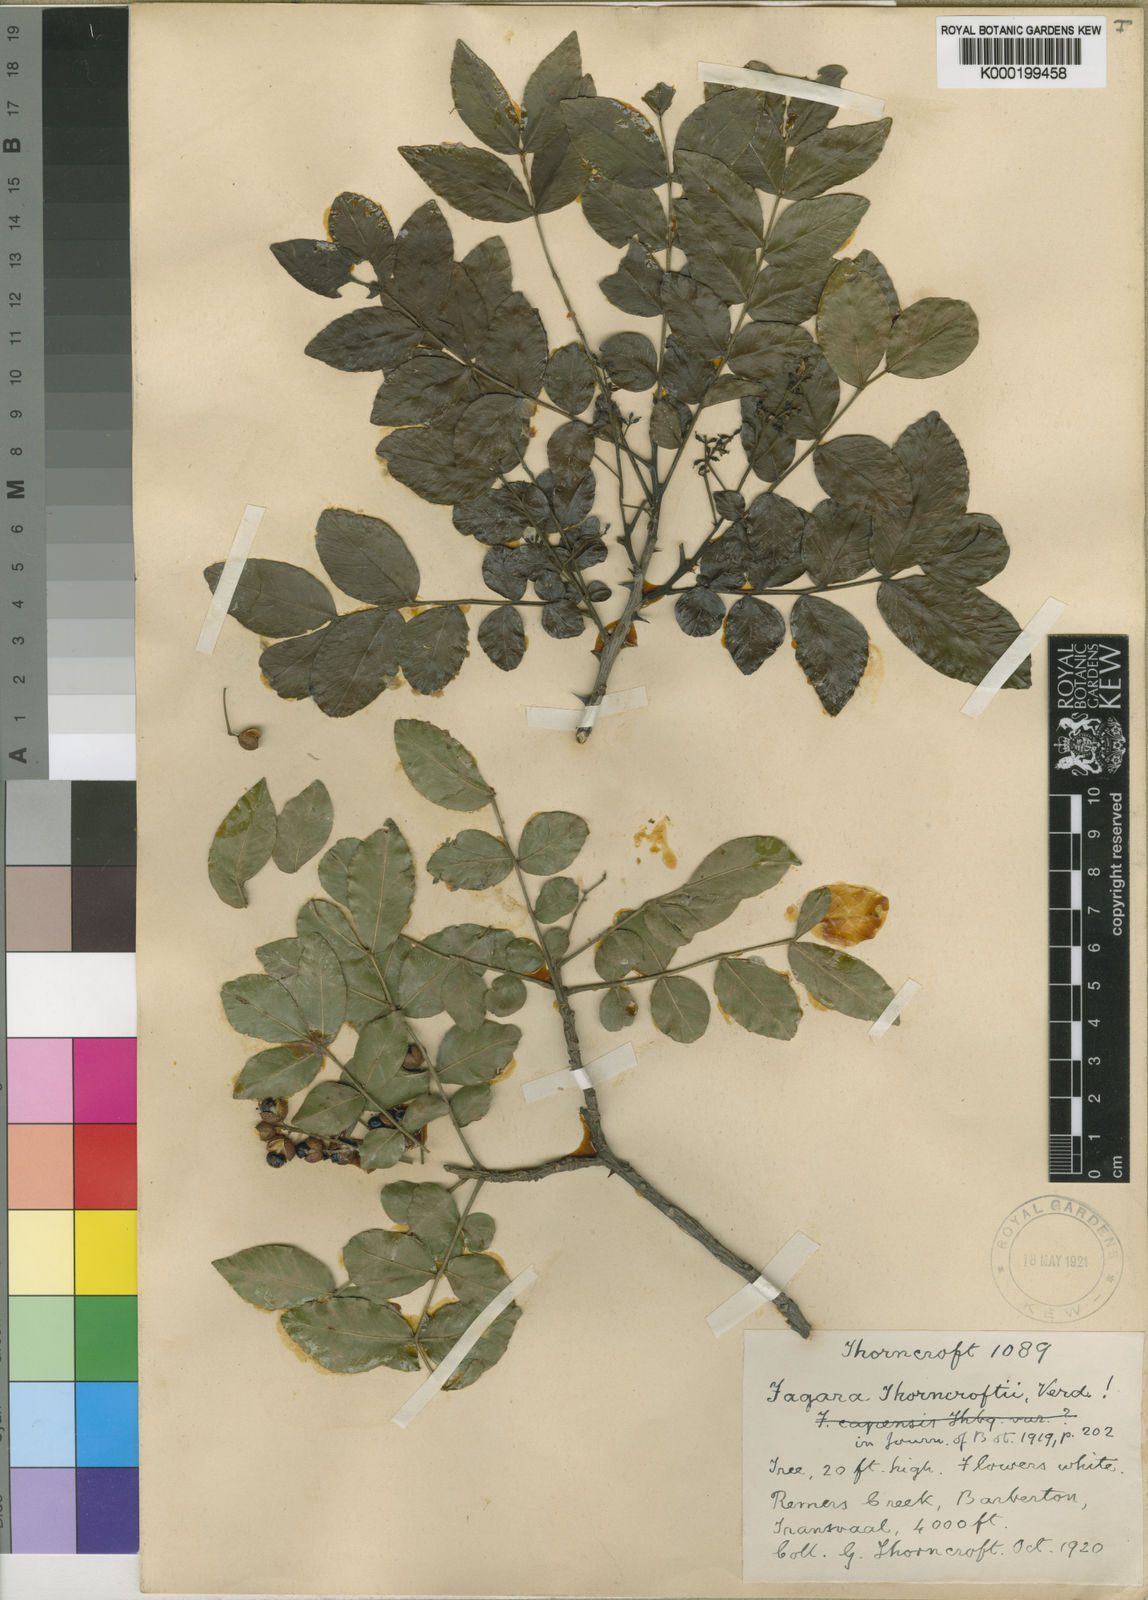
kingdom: Plantae
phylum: Tracheophyta
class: Magnoliopsida
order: Sapindales
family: Rutaceae
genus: Zanthoxylum
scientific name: Zanthoxylum capense
